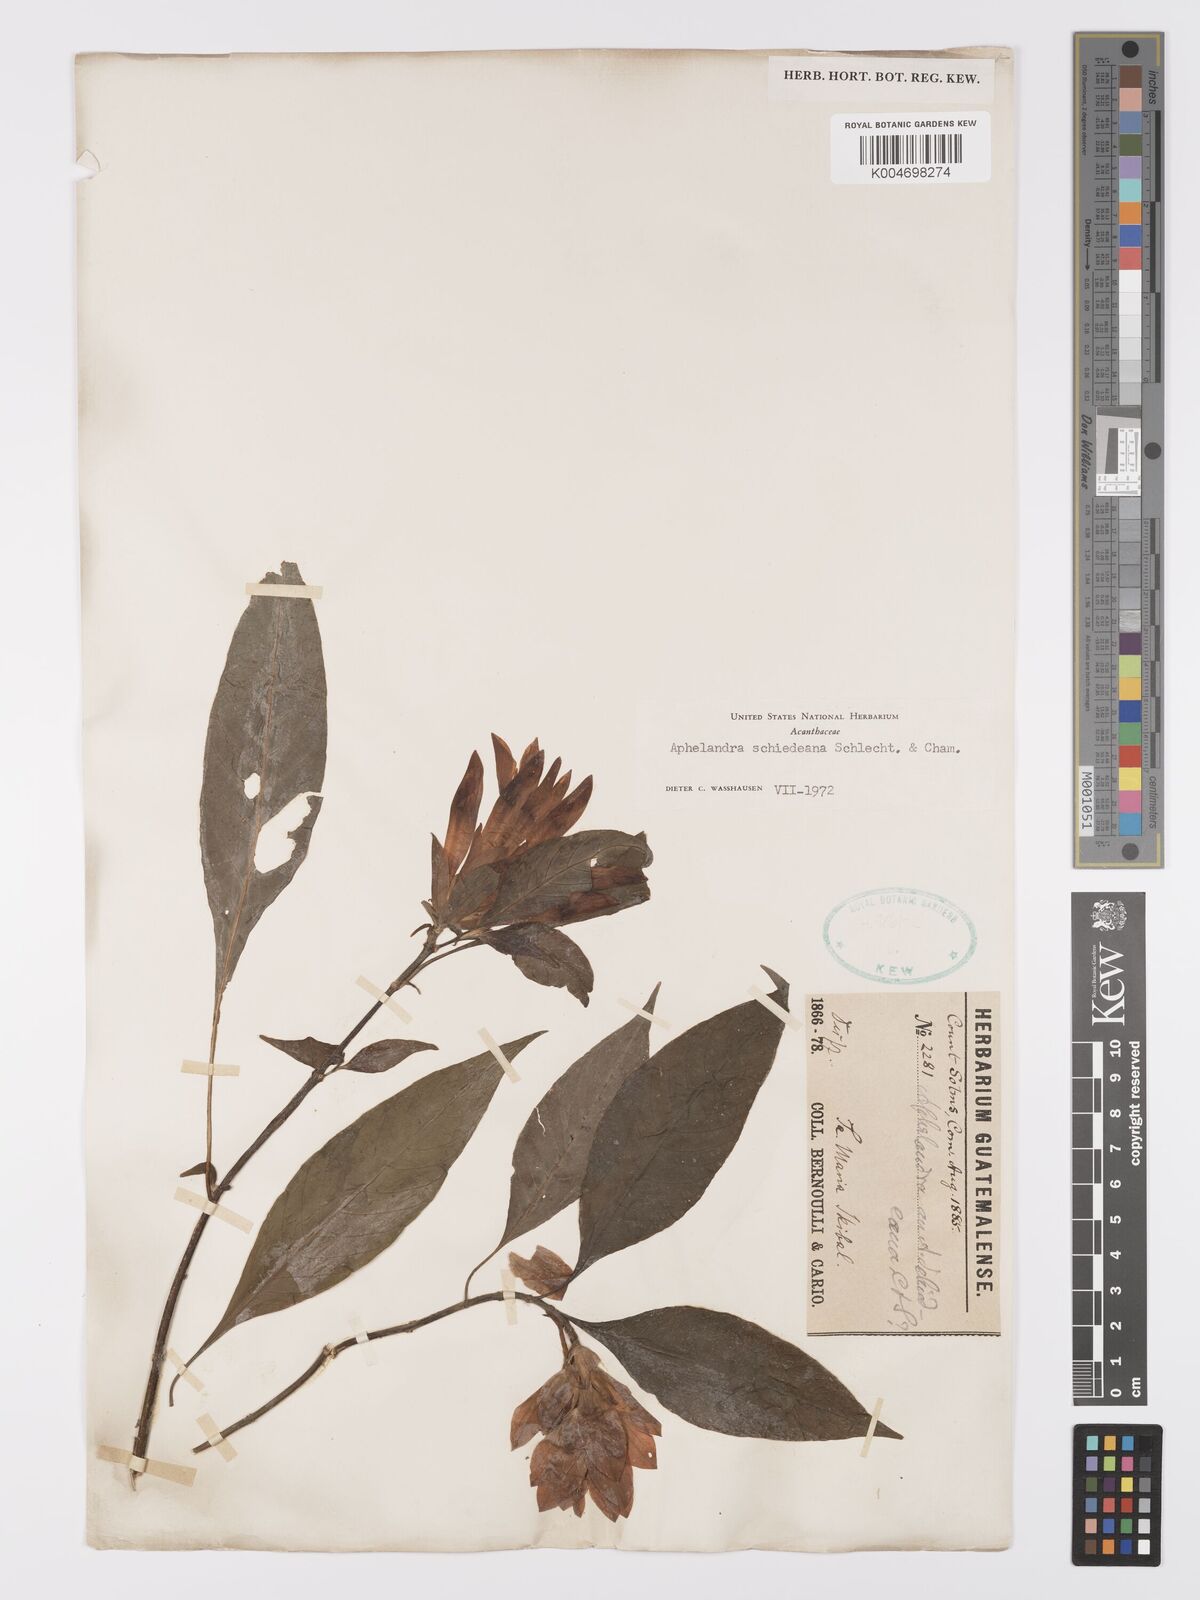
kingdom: Plantae
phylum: Tracheophyta
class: Magnoliopsida
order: Lamiales
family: Acanthaceae
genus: Aphelandra
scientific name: Aphelandra schiedeana
